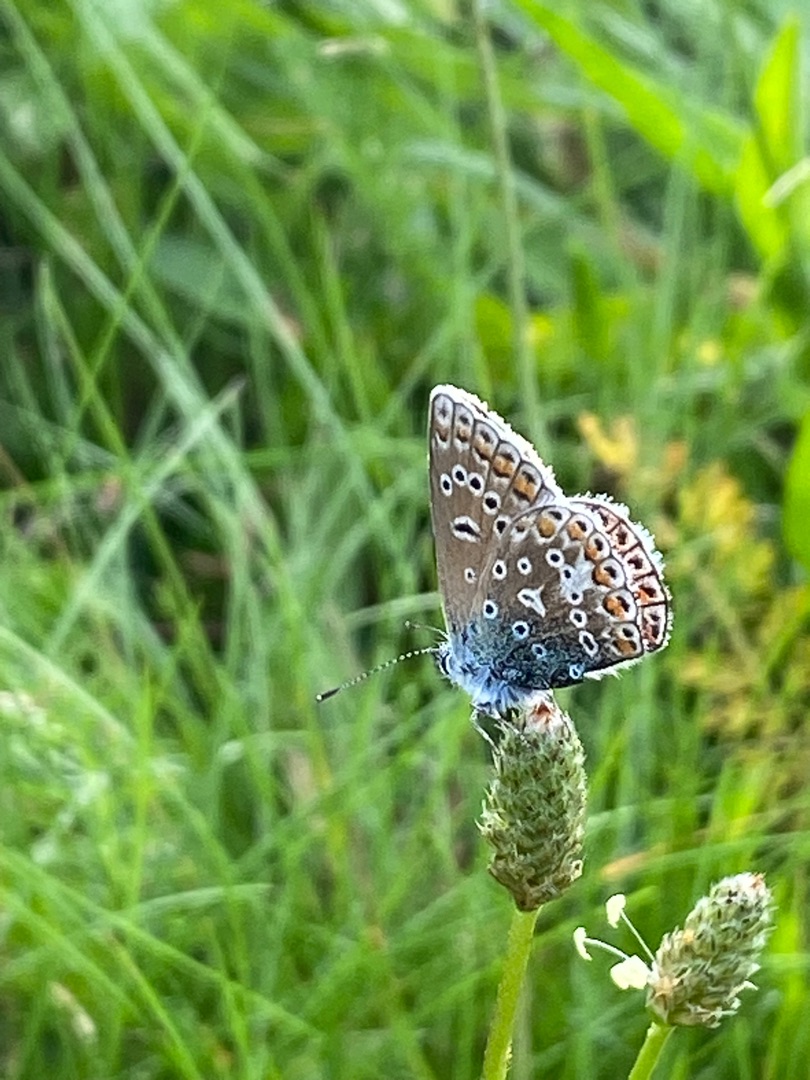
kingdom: Animalia
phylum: Arthropoda
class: Insecta
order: Lepidoptera
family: Lycaenidae
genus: Polyommatus
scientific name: Polyommatus icarus
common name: Almindelig blåfugl
